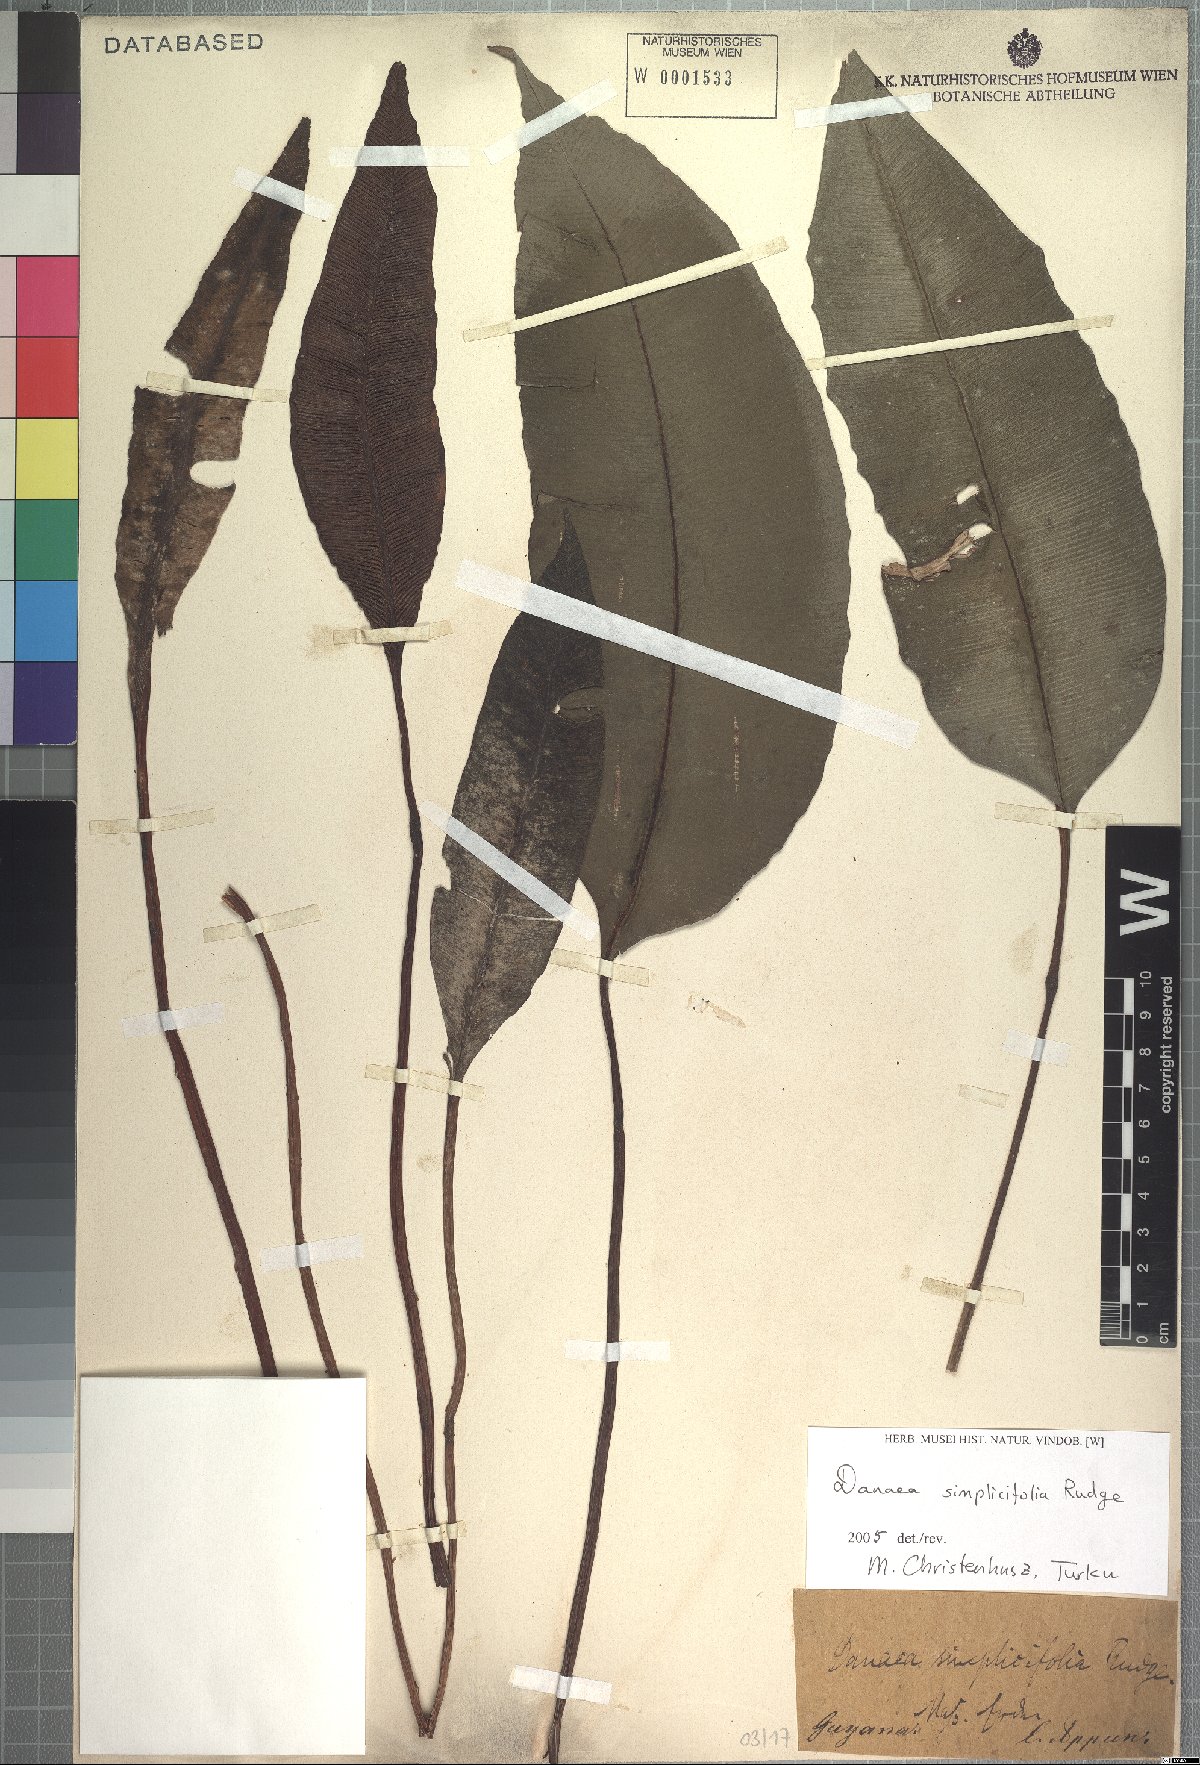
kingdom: Plantae
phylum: Tracheophyta
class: Polypodiopsida
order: Marattiales
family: Marattiaceae
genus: Danaea
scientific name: Danaea simplicifolia
